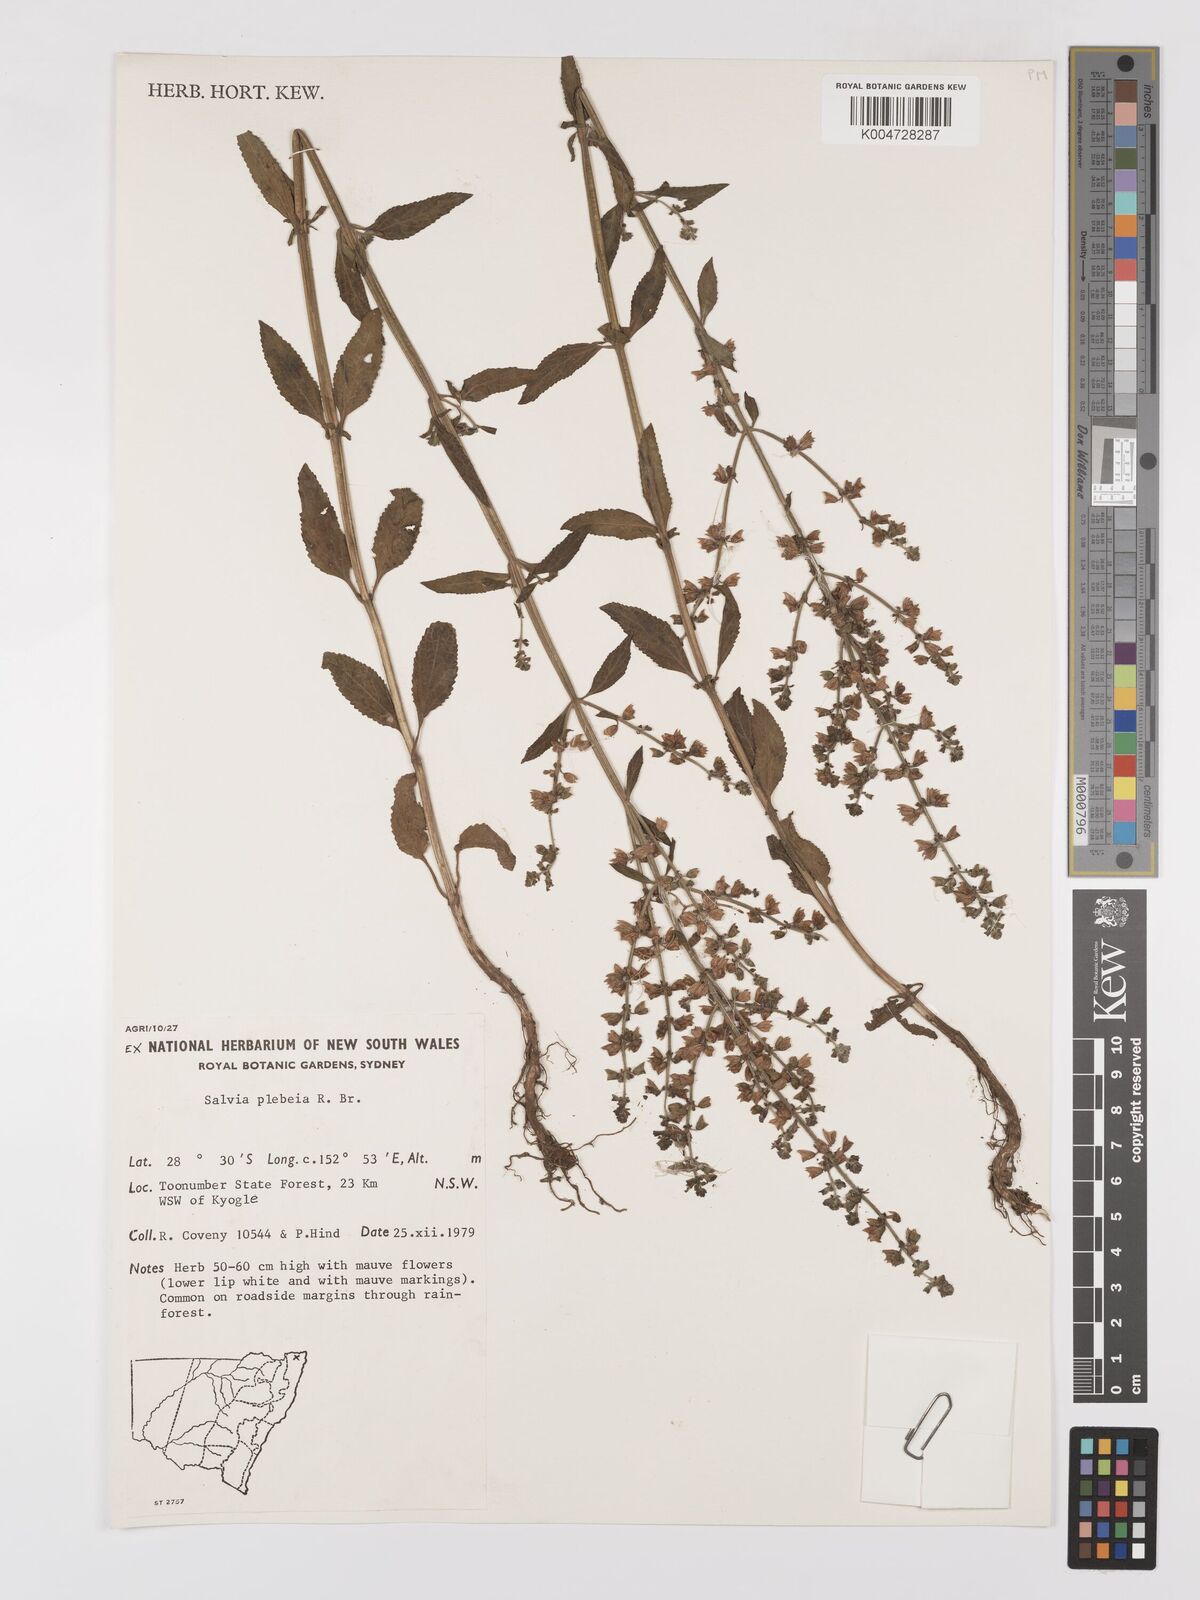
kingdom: Plantae
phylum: Tracheophyta
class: Magnoliopsida
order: Lamiales
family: Lamiaceae
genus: Salvia
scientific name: Salvia plebeia
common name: Australian sage
